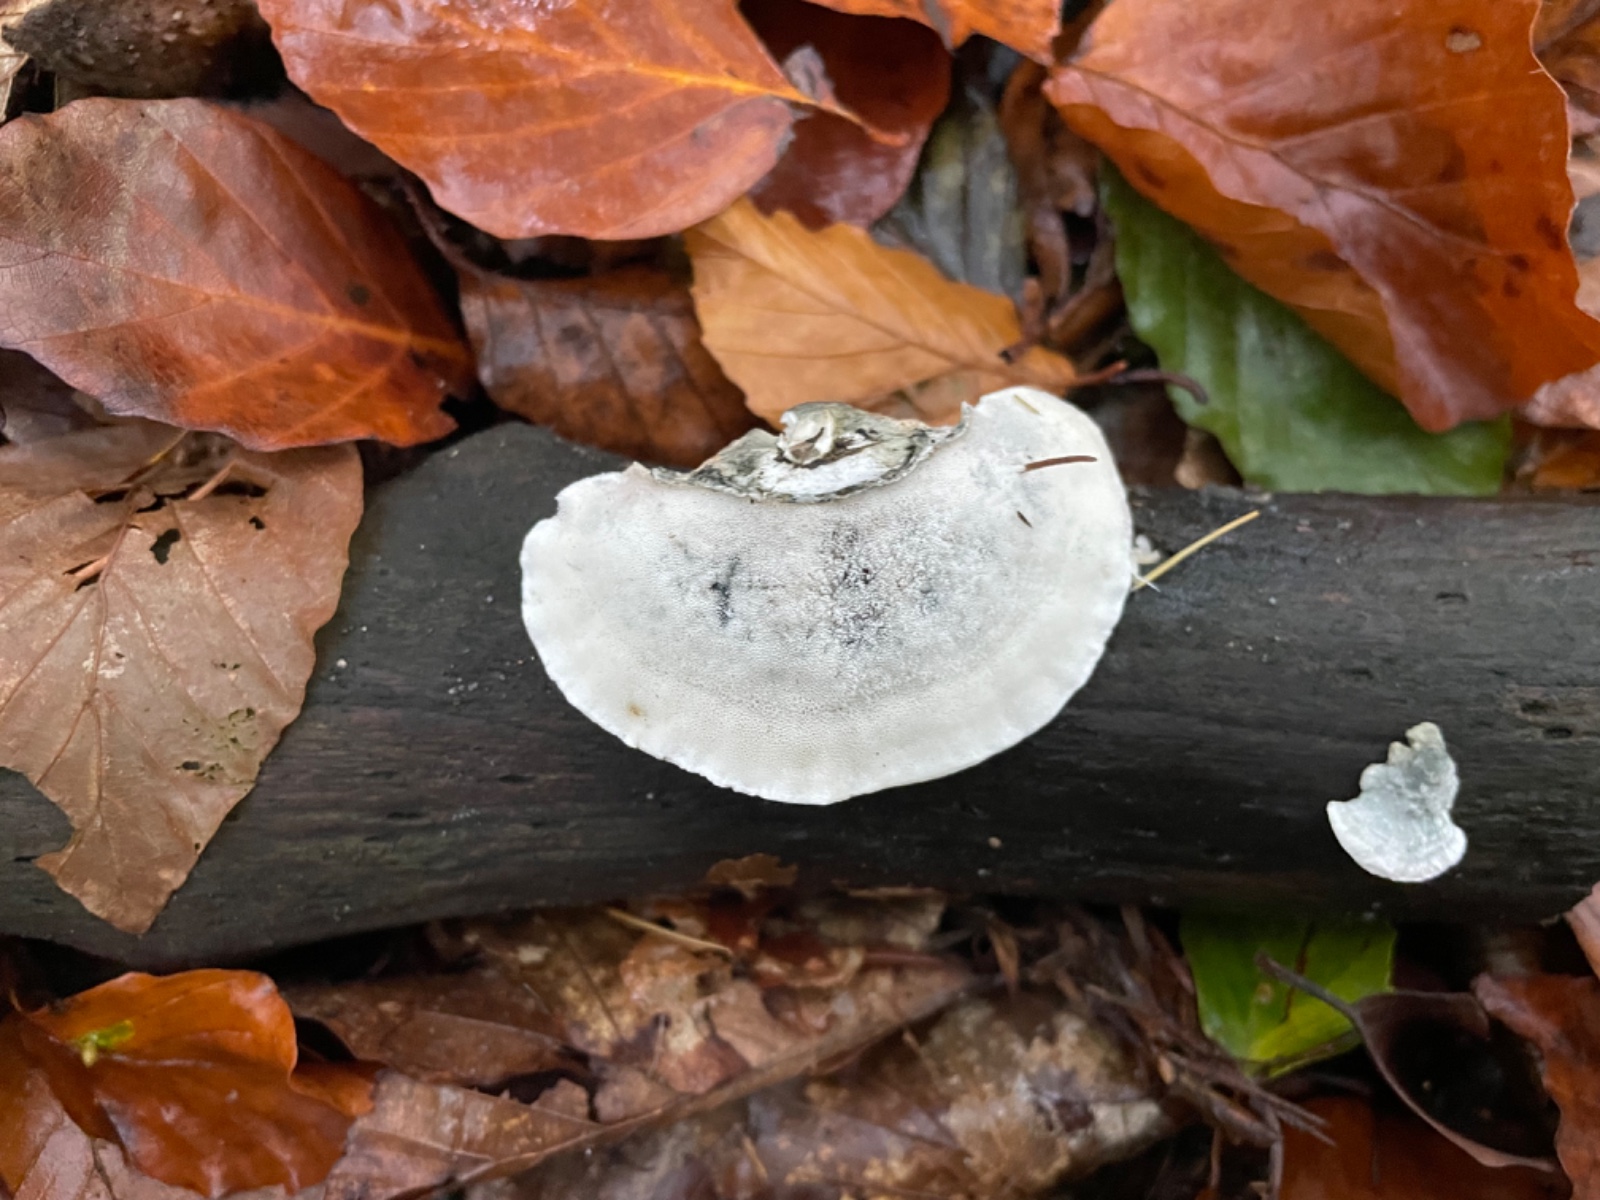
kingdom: Fungi
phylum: Basidiomycota
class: Agaricomycetes
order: Polyporales
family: Polyporaceae
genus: Cyanosporus
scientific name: Cyanosporus alni
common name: blegblå kødporesvamp
